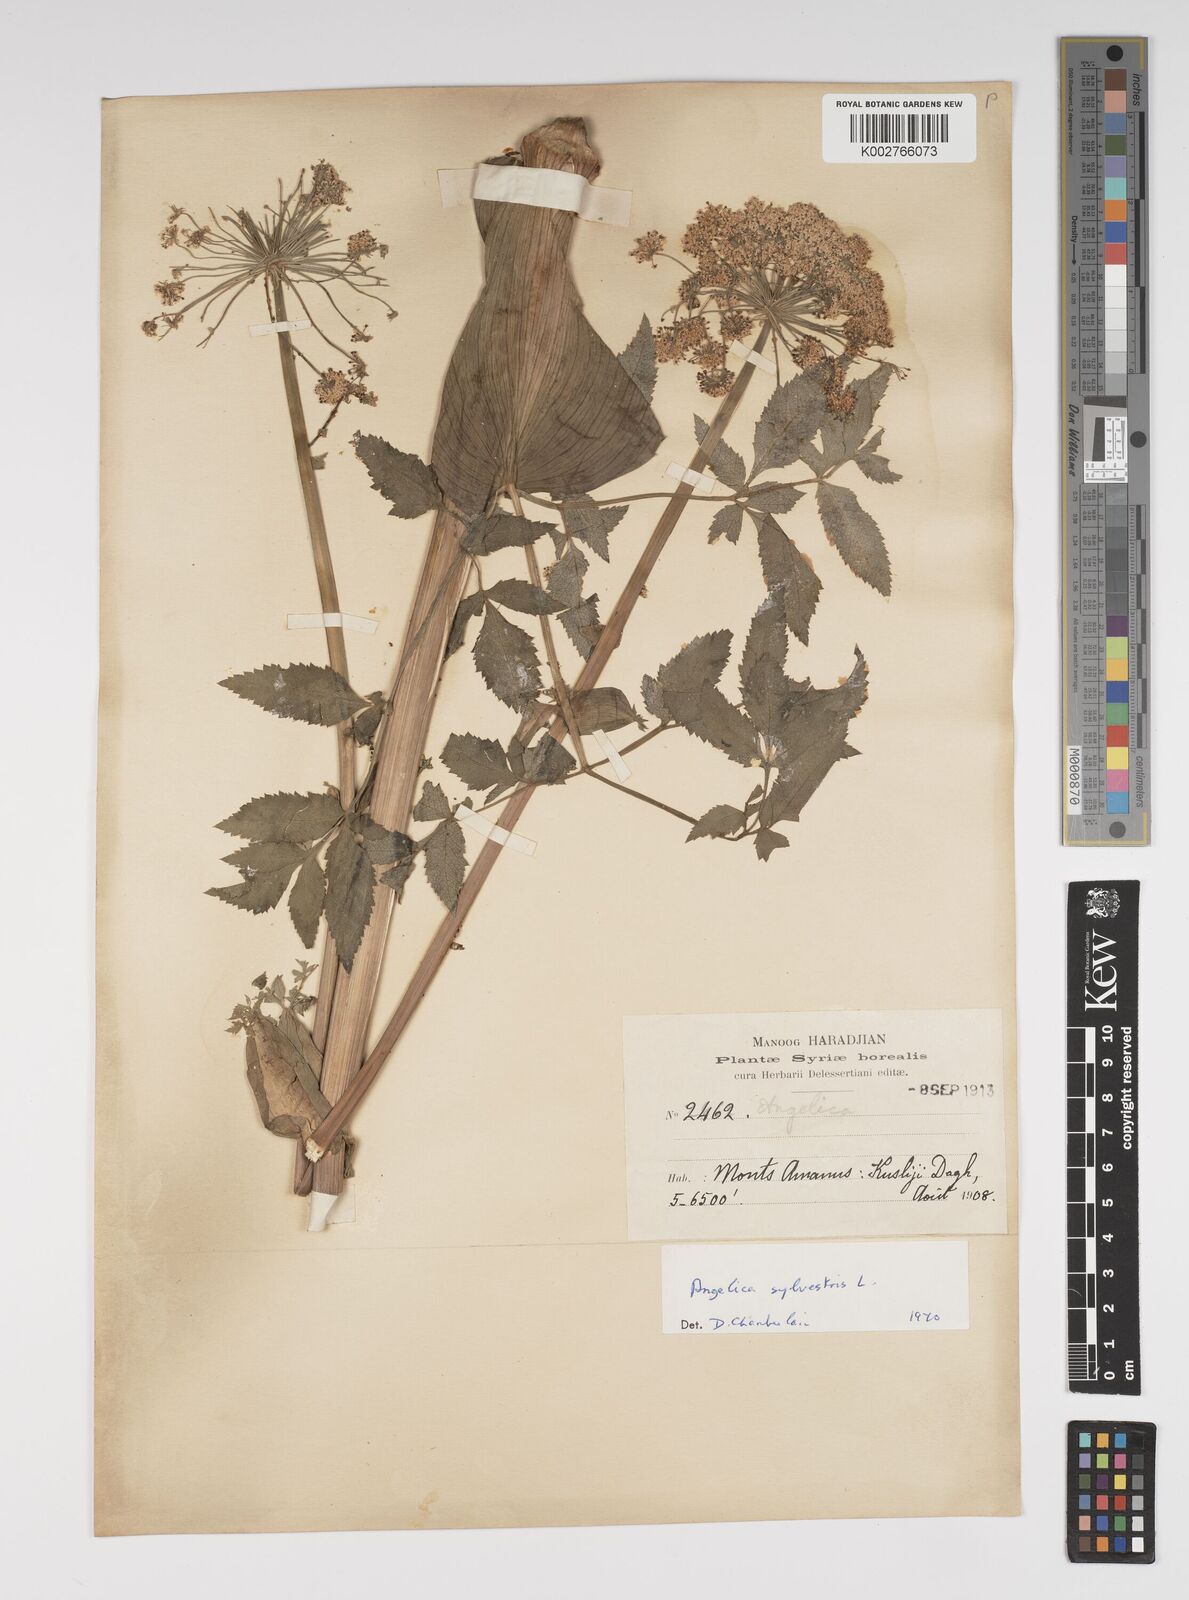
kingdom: Plantae
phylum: Tracheophyta
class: Magnoliopsida
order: Apiales
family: Apiaceae
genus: Angelica
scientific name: Angelica sylvestris
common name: Wild angelica
